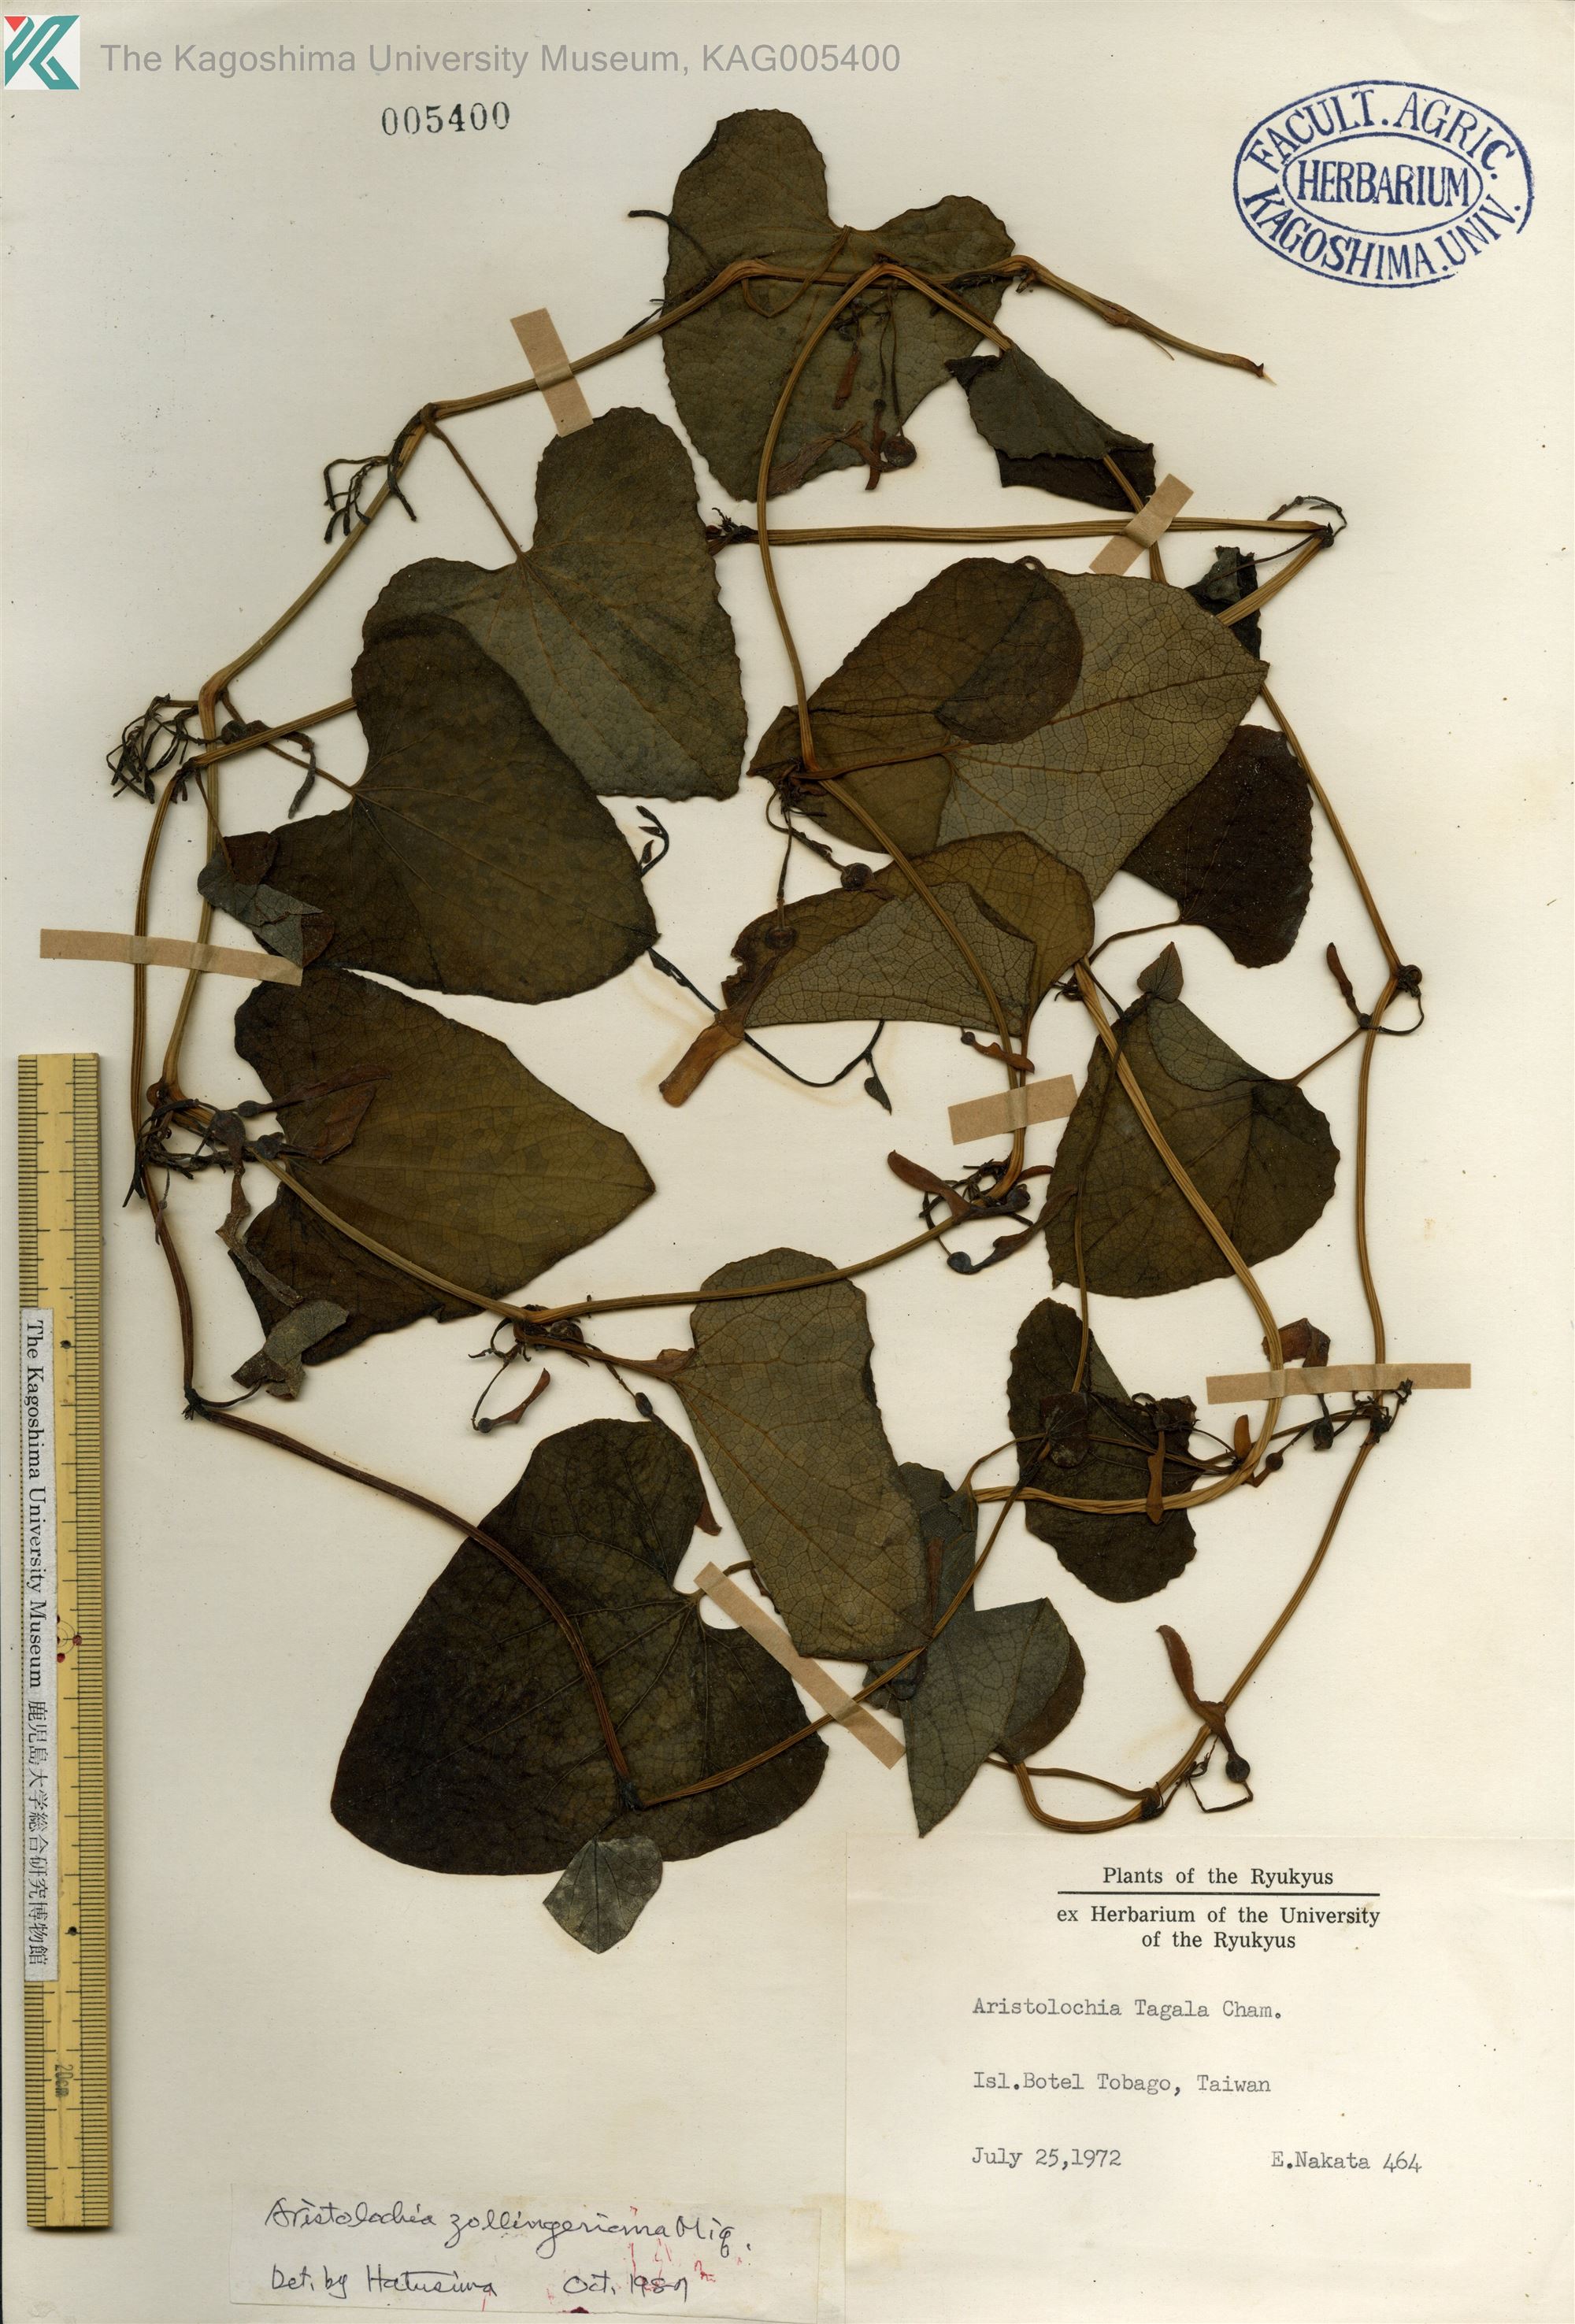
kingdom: Plantae
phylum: Tracheophyta
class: Magnoliopsida
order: Piperales
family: Aristolochiaceae
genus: Aristolochia
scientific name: Aristolochia zollingeriana
